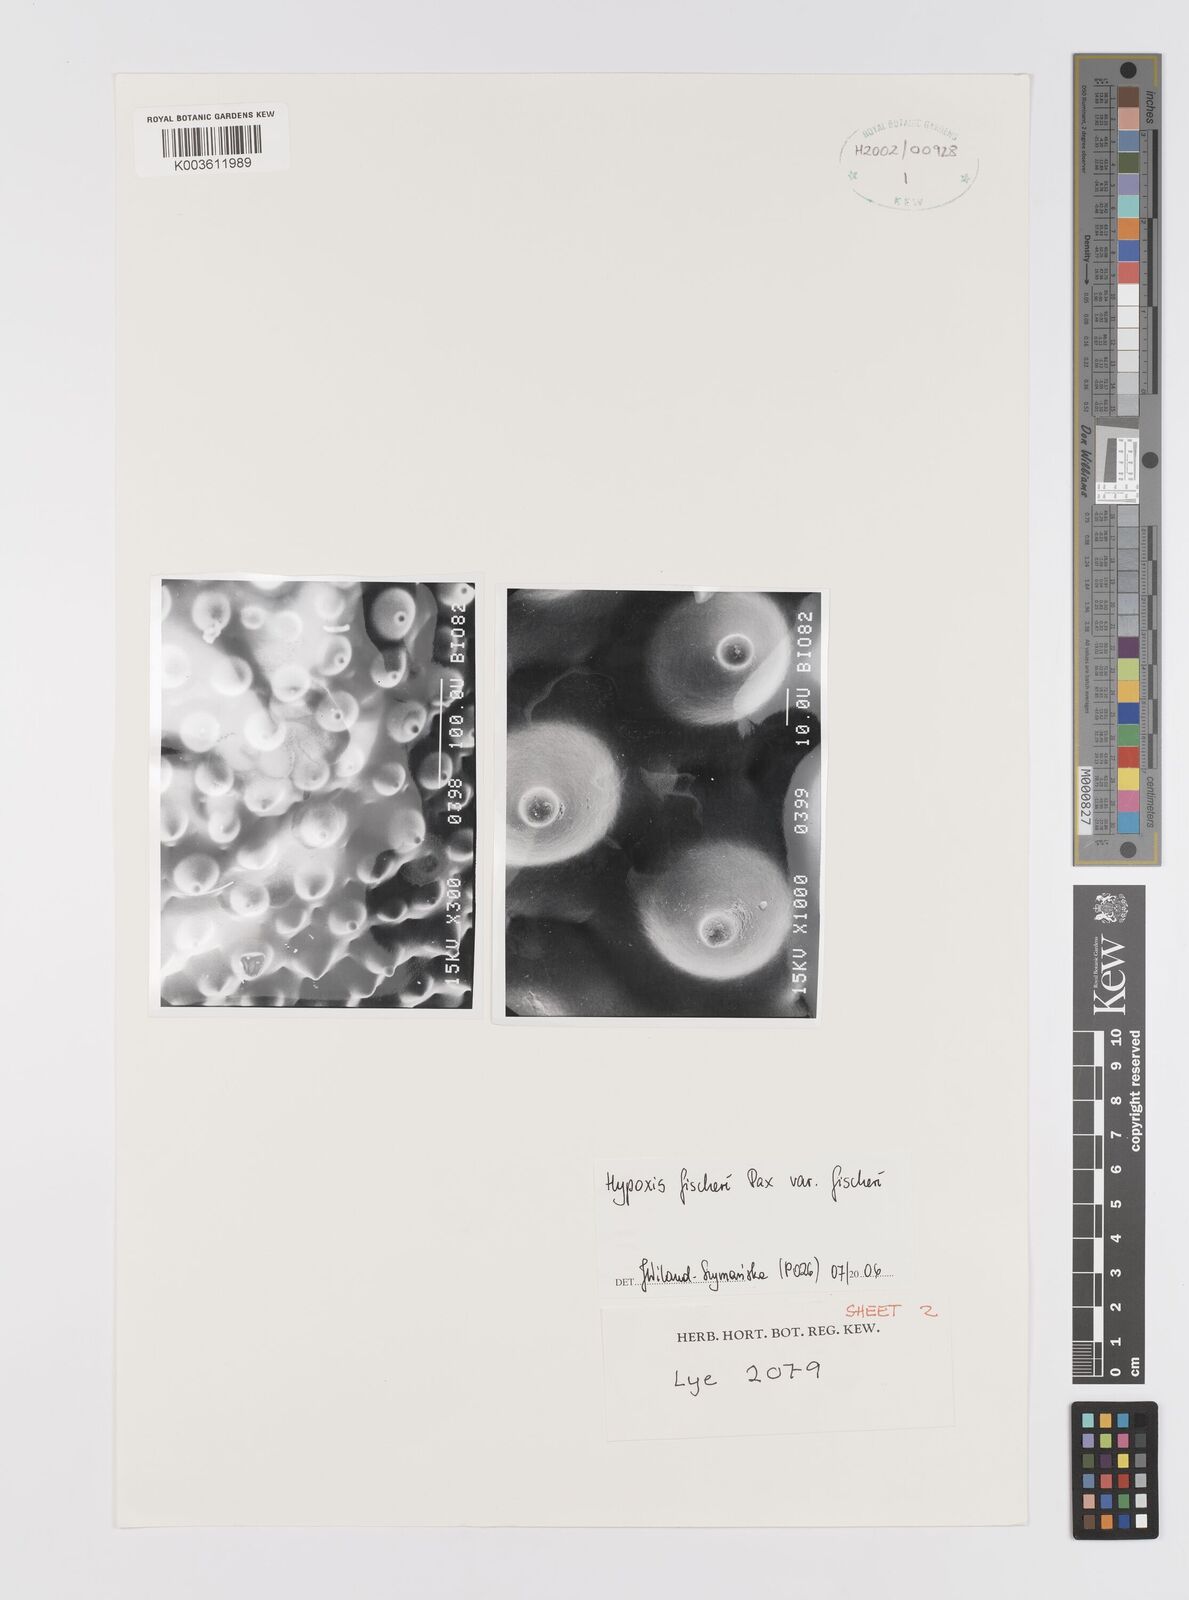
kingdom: Plantae
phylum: Tracheophyta
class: Liliopsida
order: Asparagales
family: Hypoxidaceae
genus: Hypoxis
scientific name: Hypoxis fischeri
